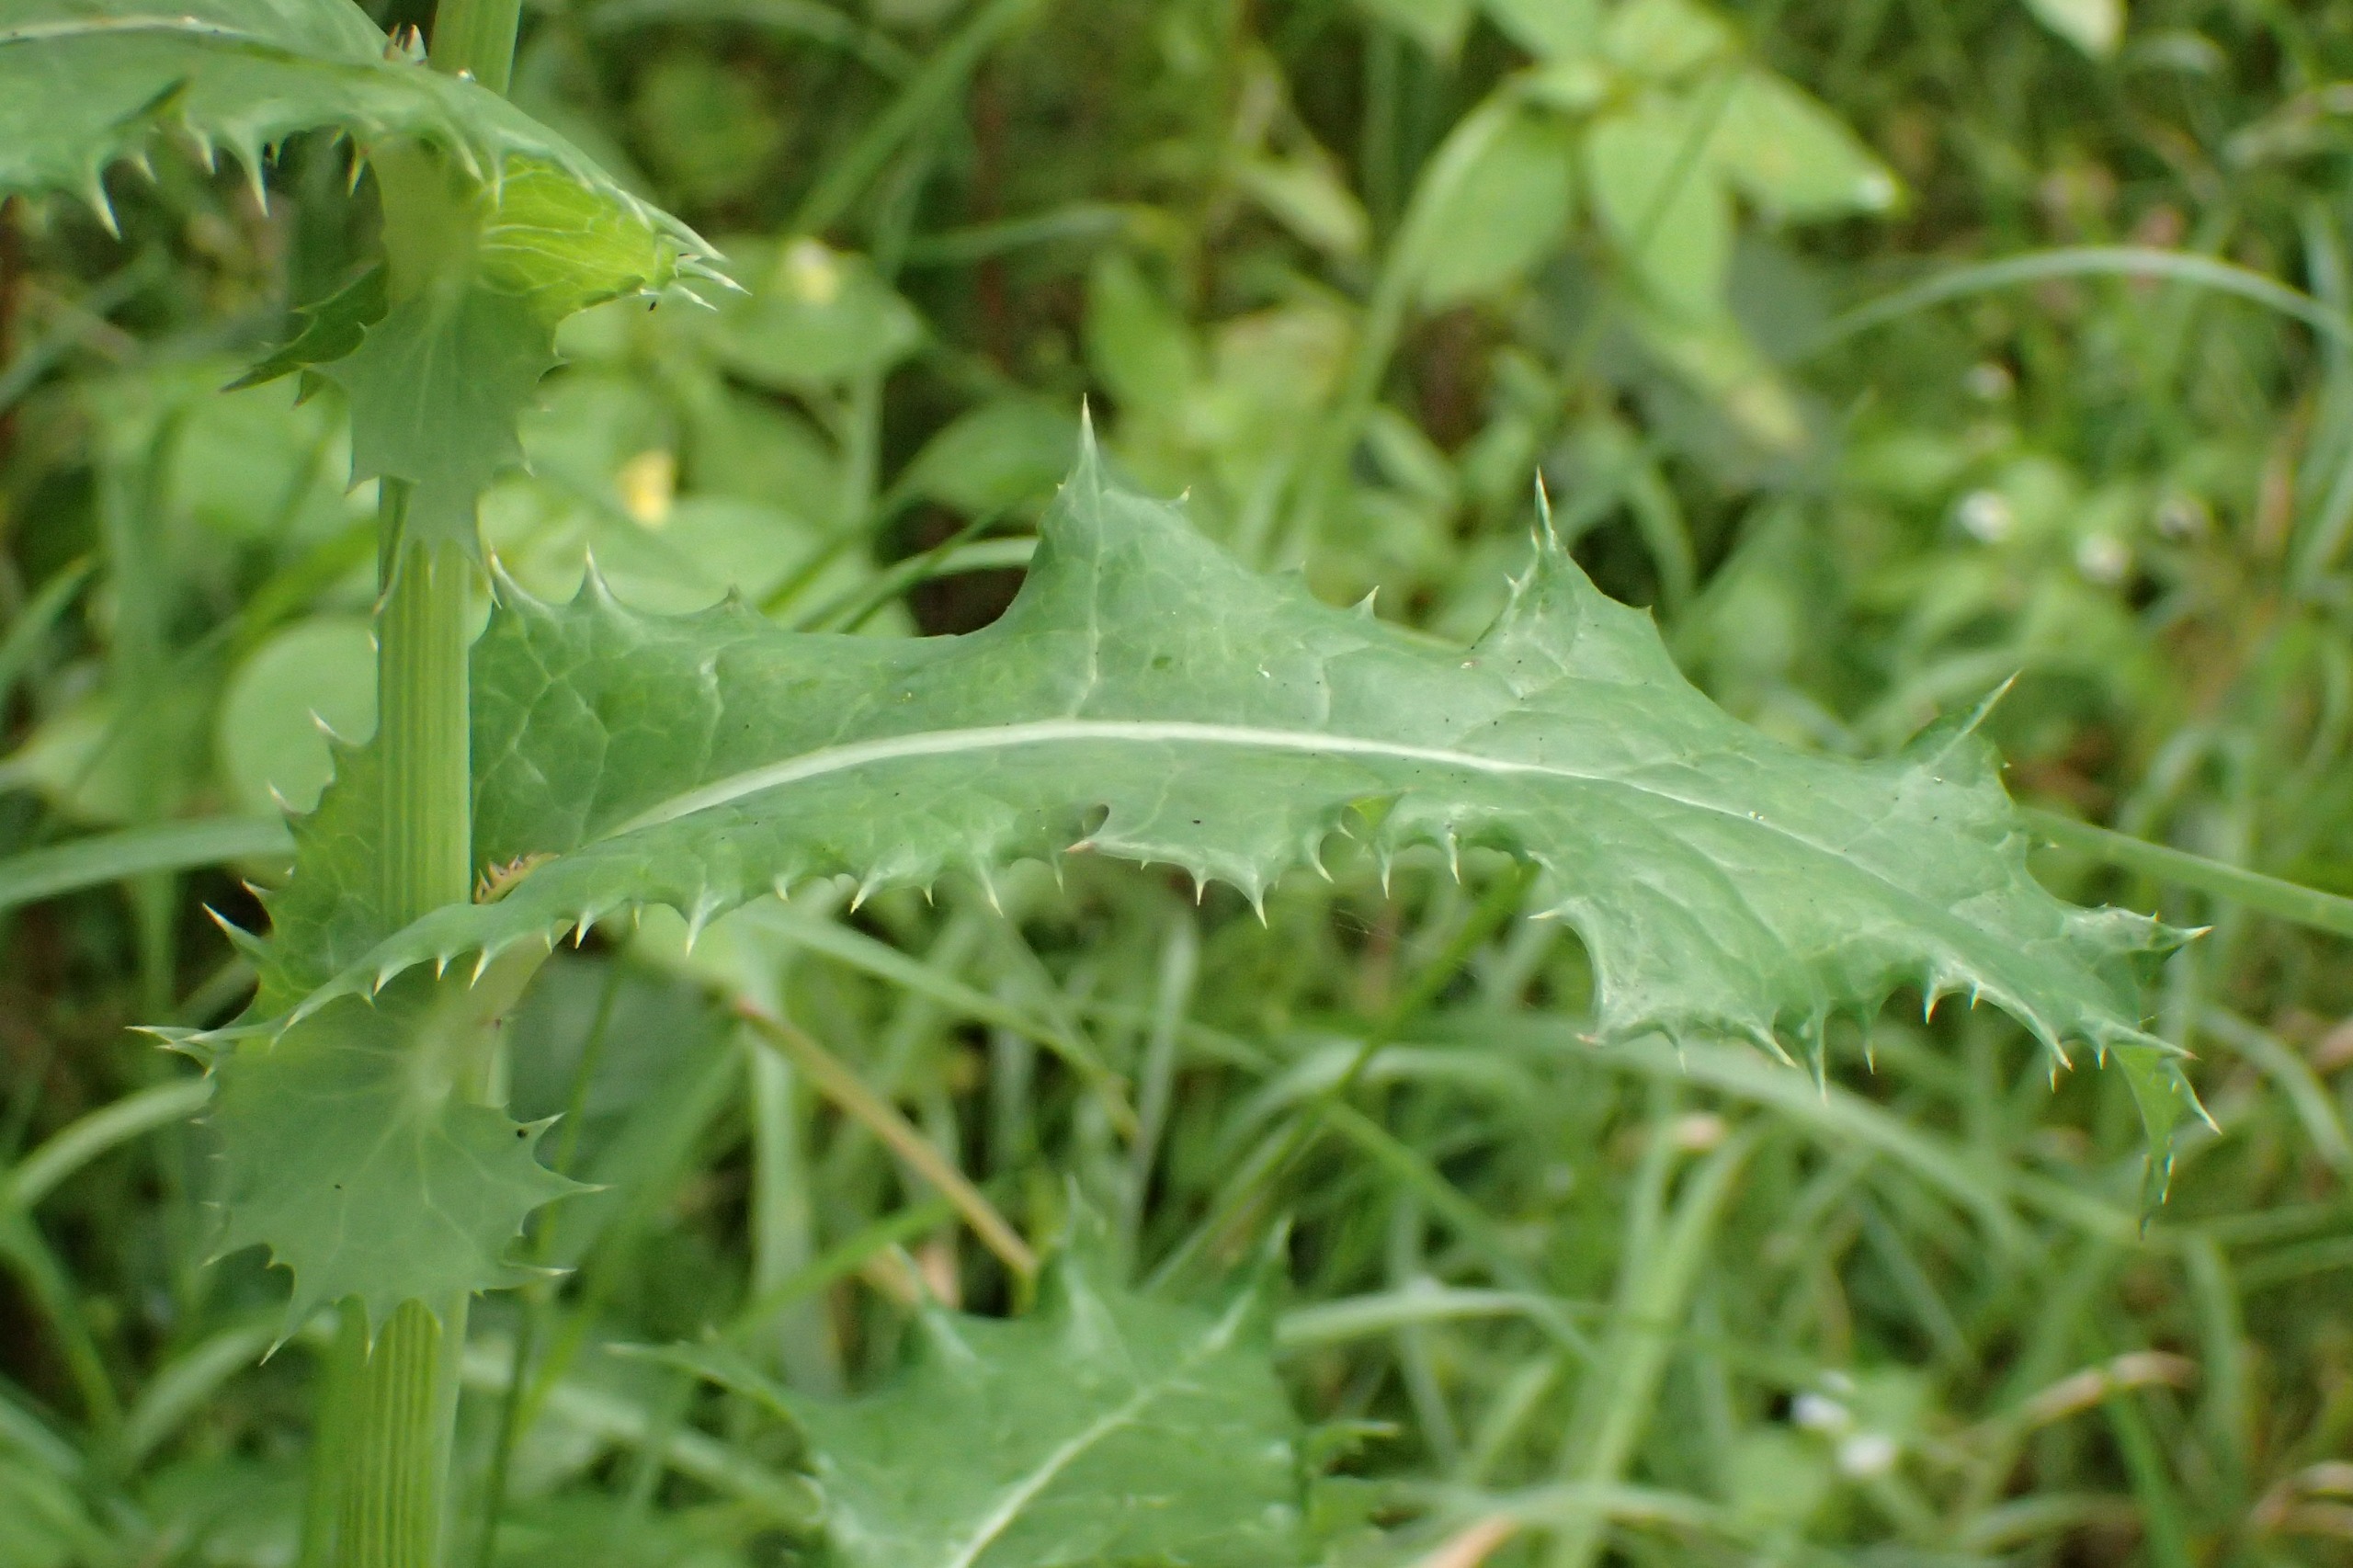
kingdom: Plantae
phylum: Tracheophyta
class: Magnoliopsida
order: Asterales
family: Asteraceae
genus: Sonchus
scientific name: Sonchus asper
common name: Ru svinemælk
